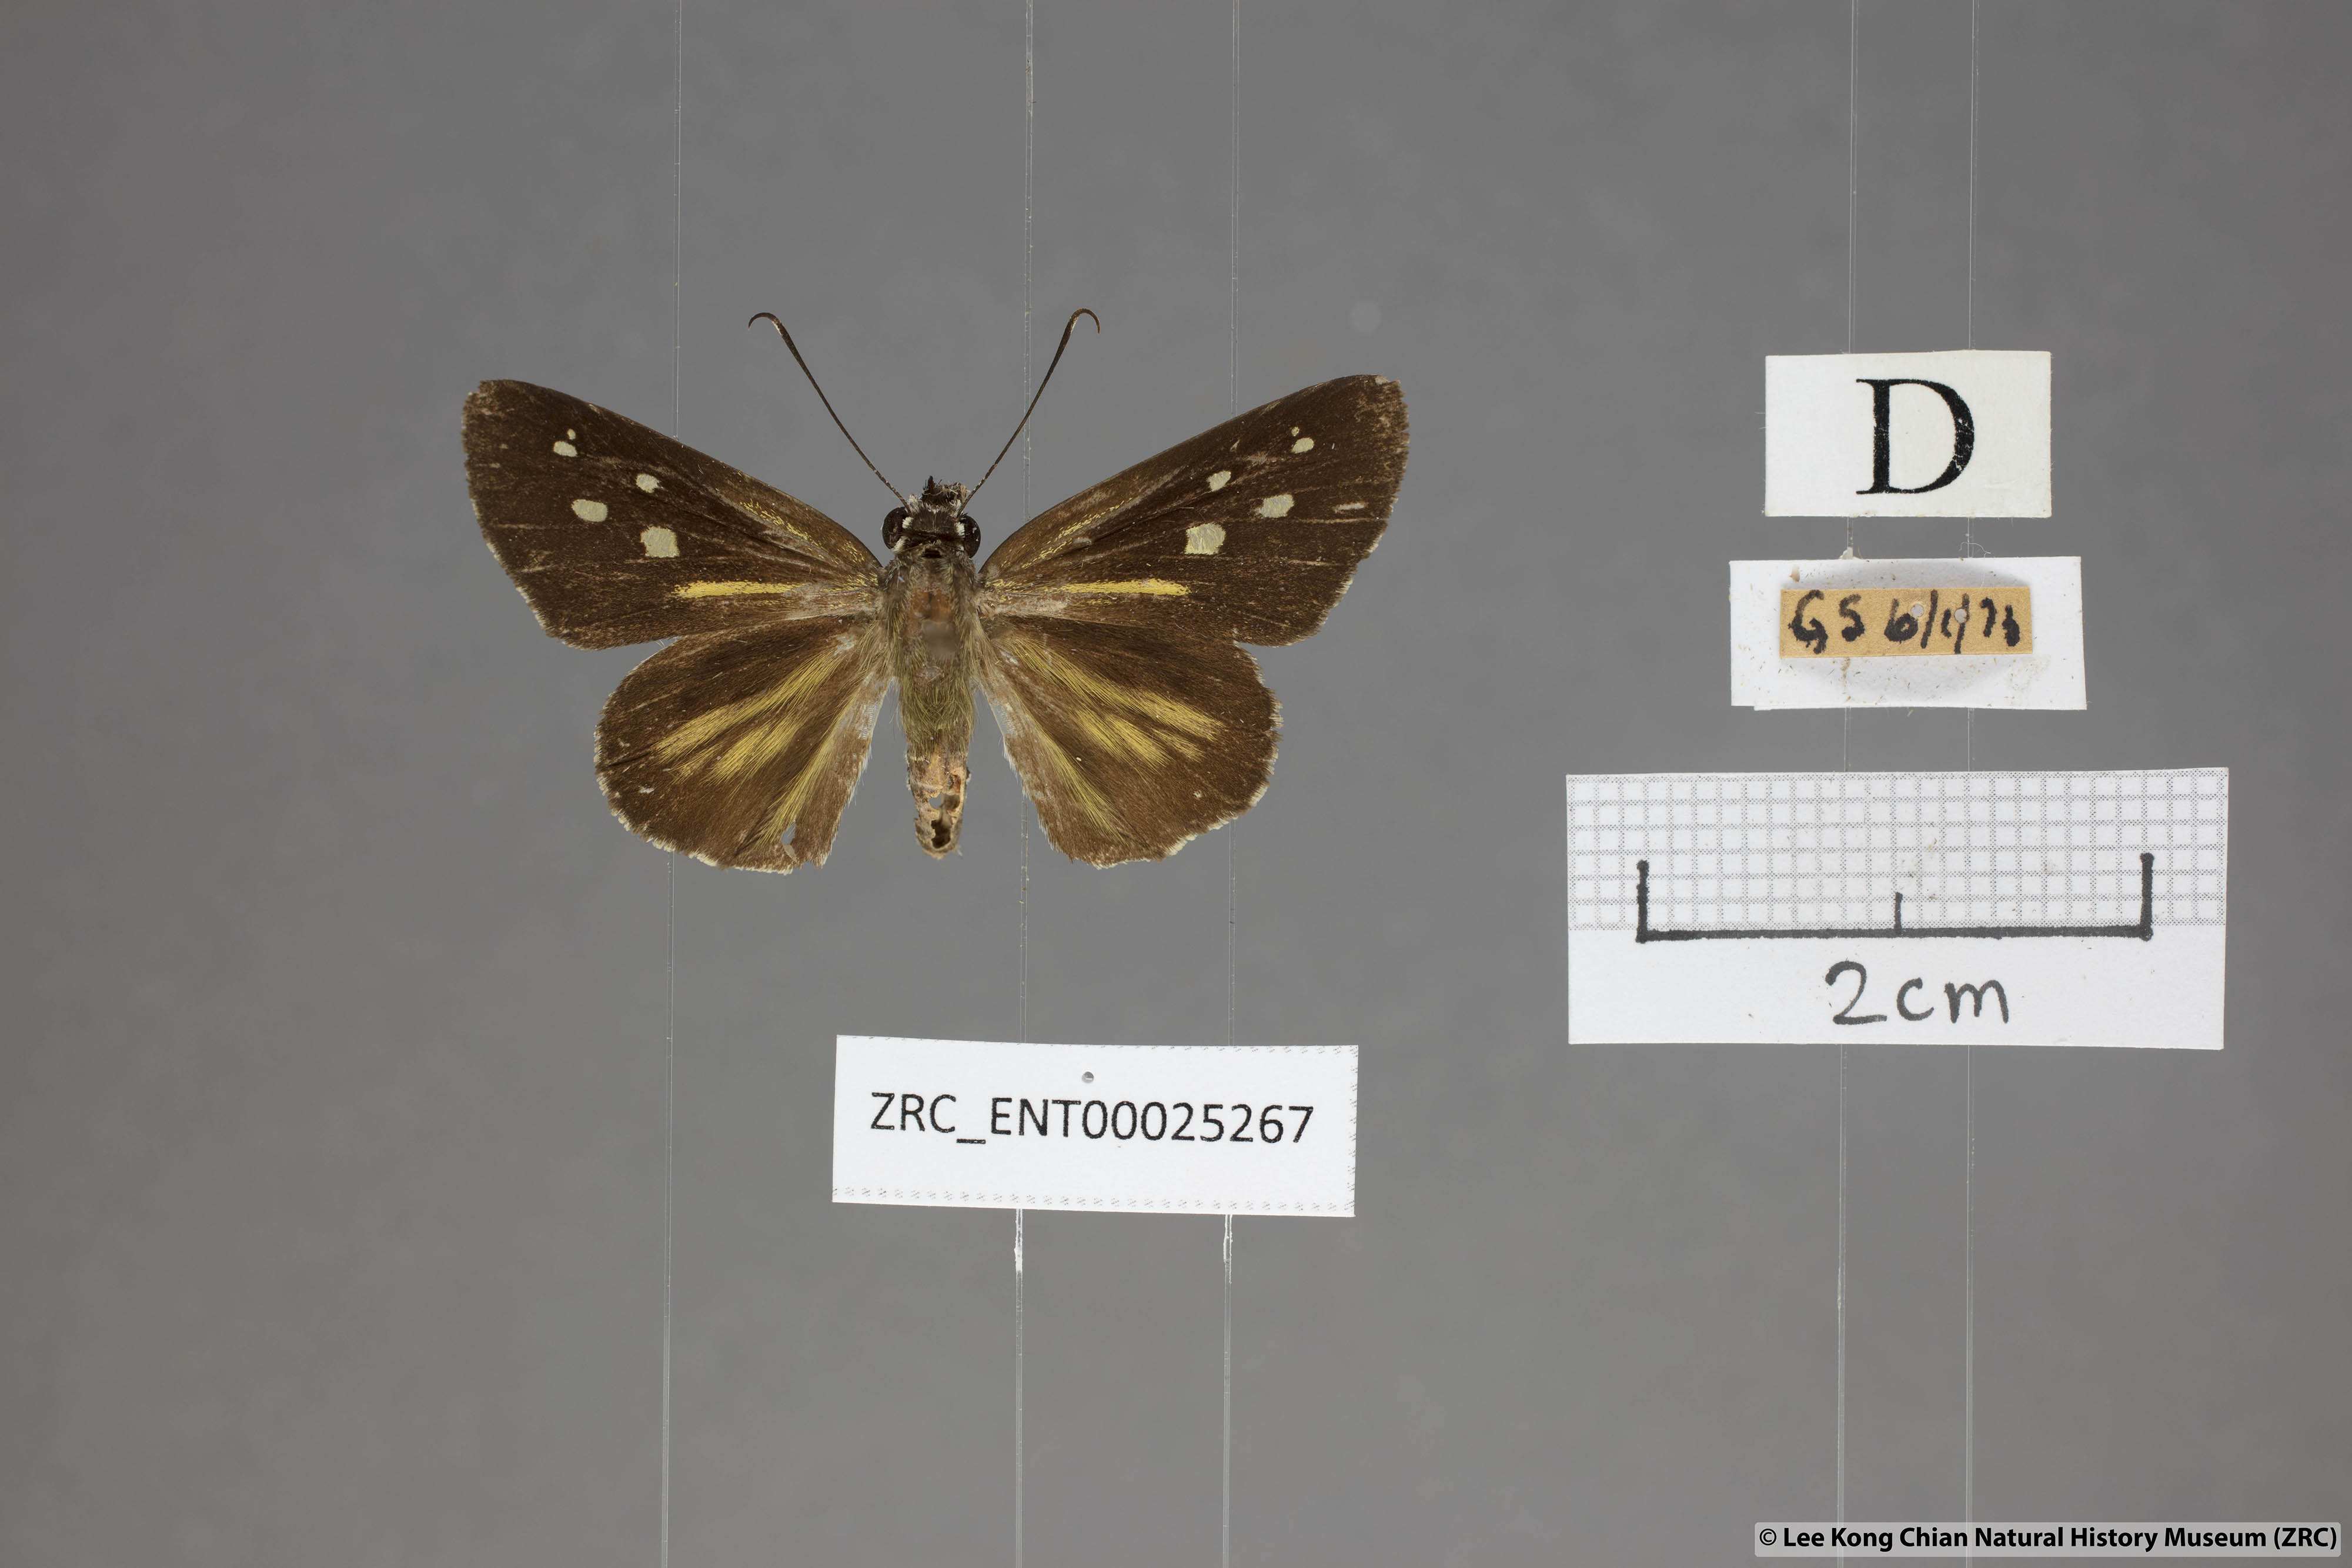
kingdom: Animalia
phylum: Arthropoda
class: Insecta
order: Lepidoptera
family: Hesperiidae
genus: Plastingia
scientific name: Plastingia naga
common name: Chequered lancer
